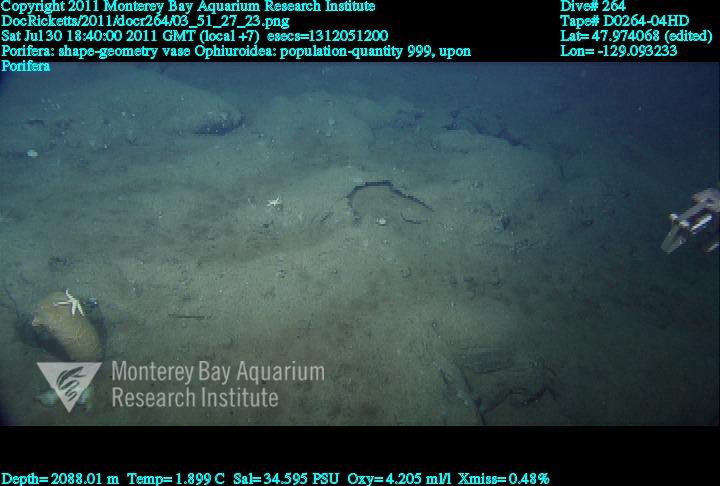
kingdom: Animalia
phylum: Porifera
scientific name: Porifera
